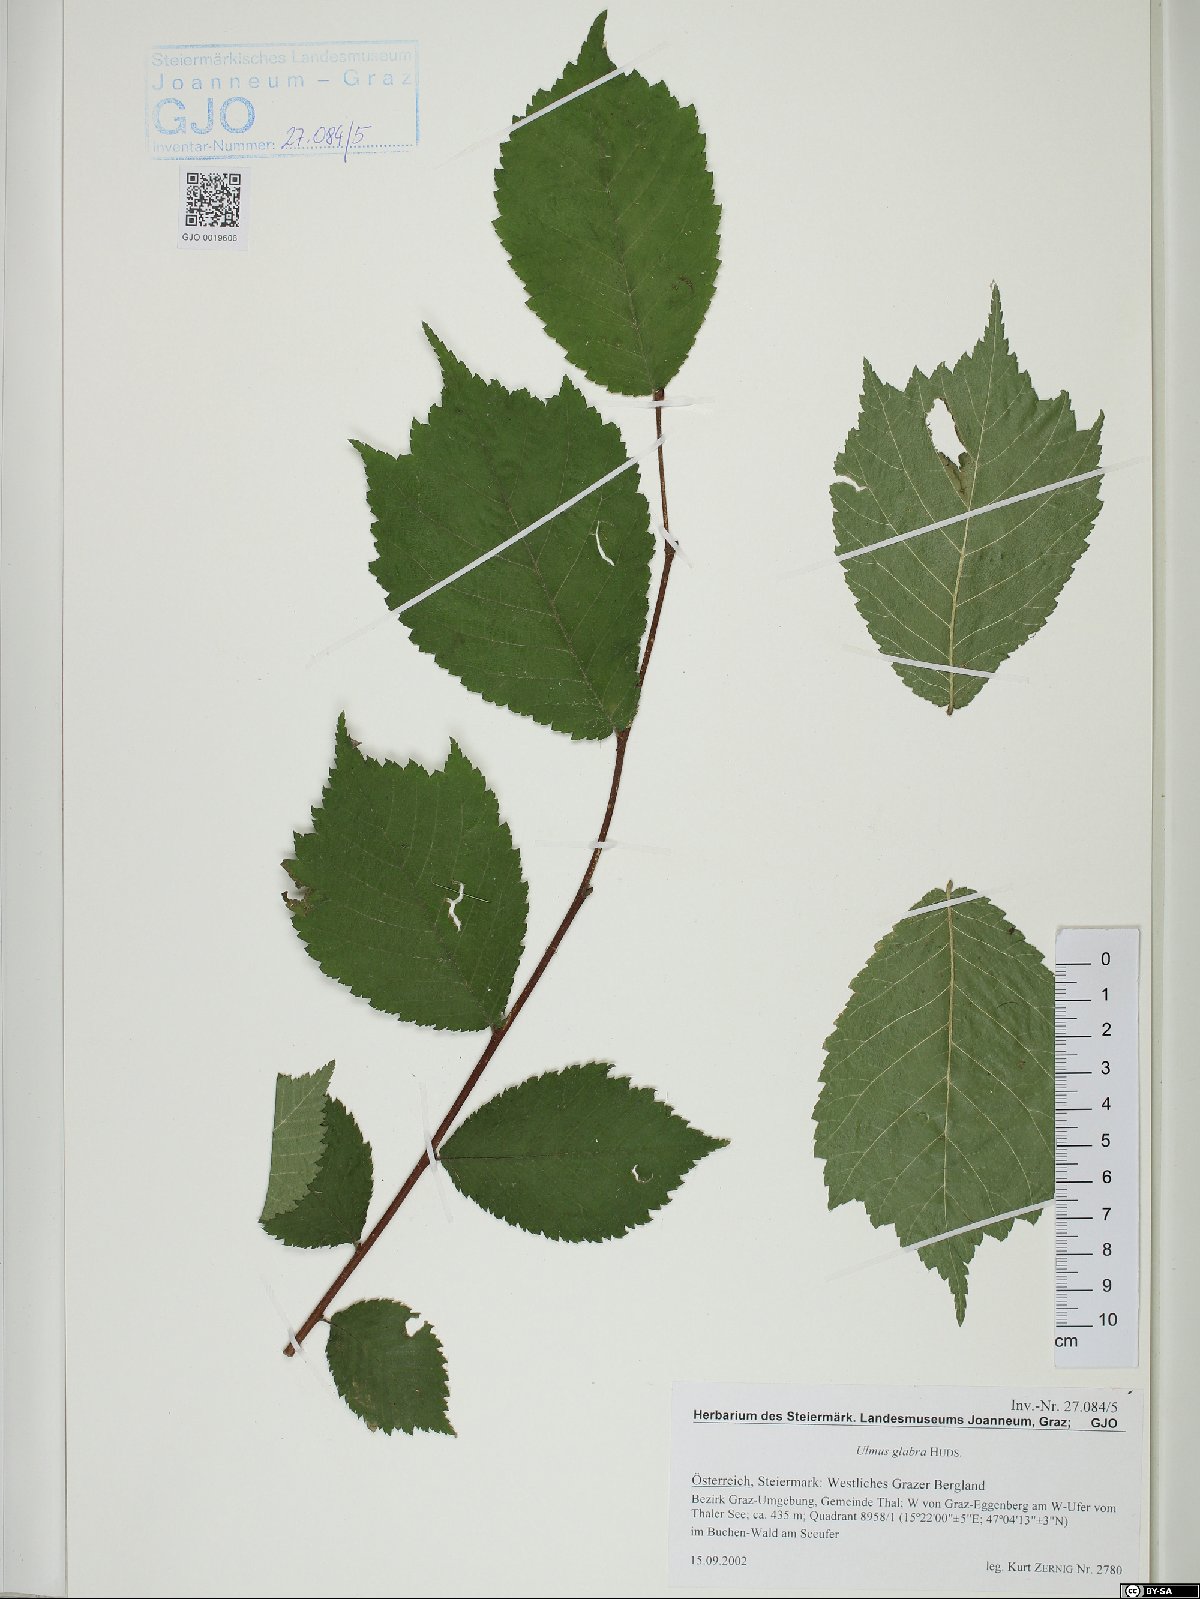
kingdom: Plantae
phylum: Tracheophyta
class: Magnoliopsida
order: Rosales
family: Ulmaceae
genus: Ulmus
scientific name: Ulmus glabra
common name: Wych elm
